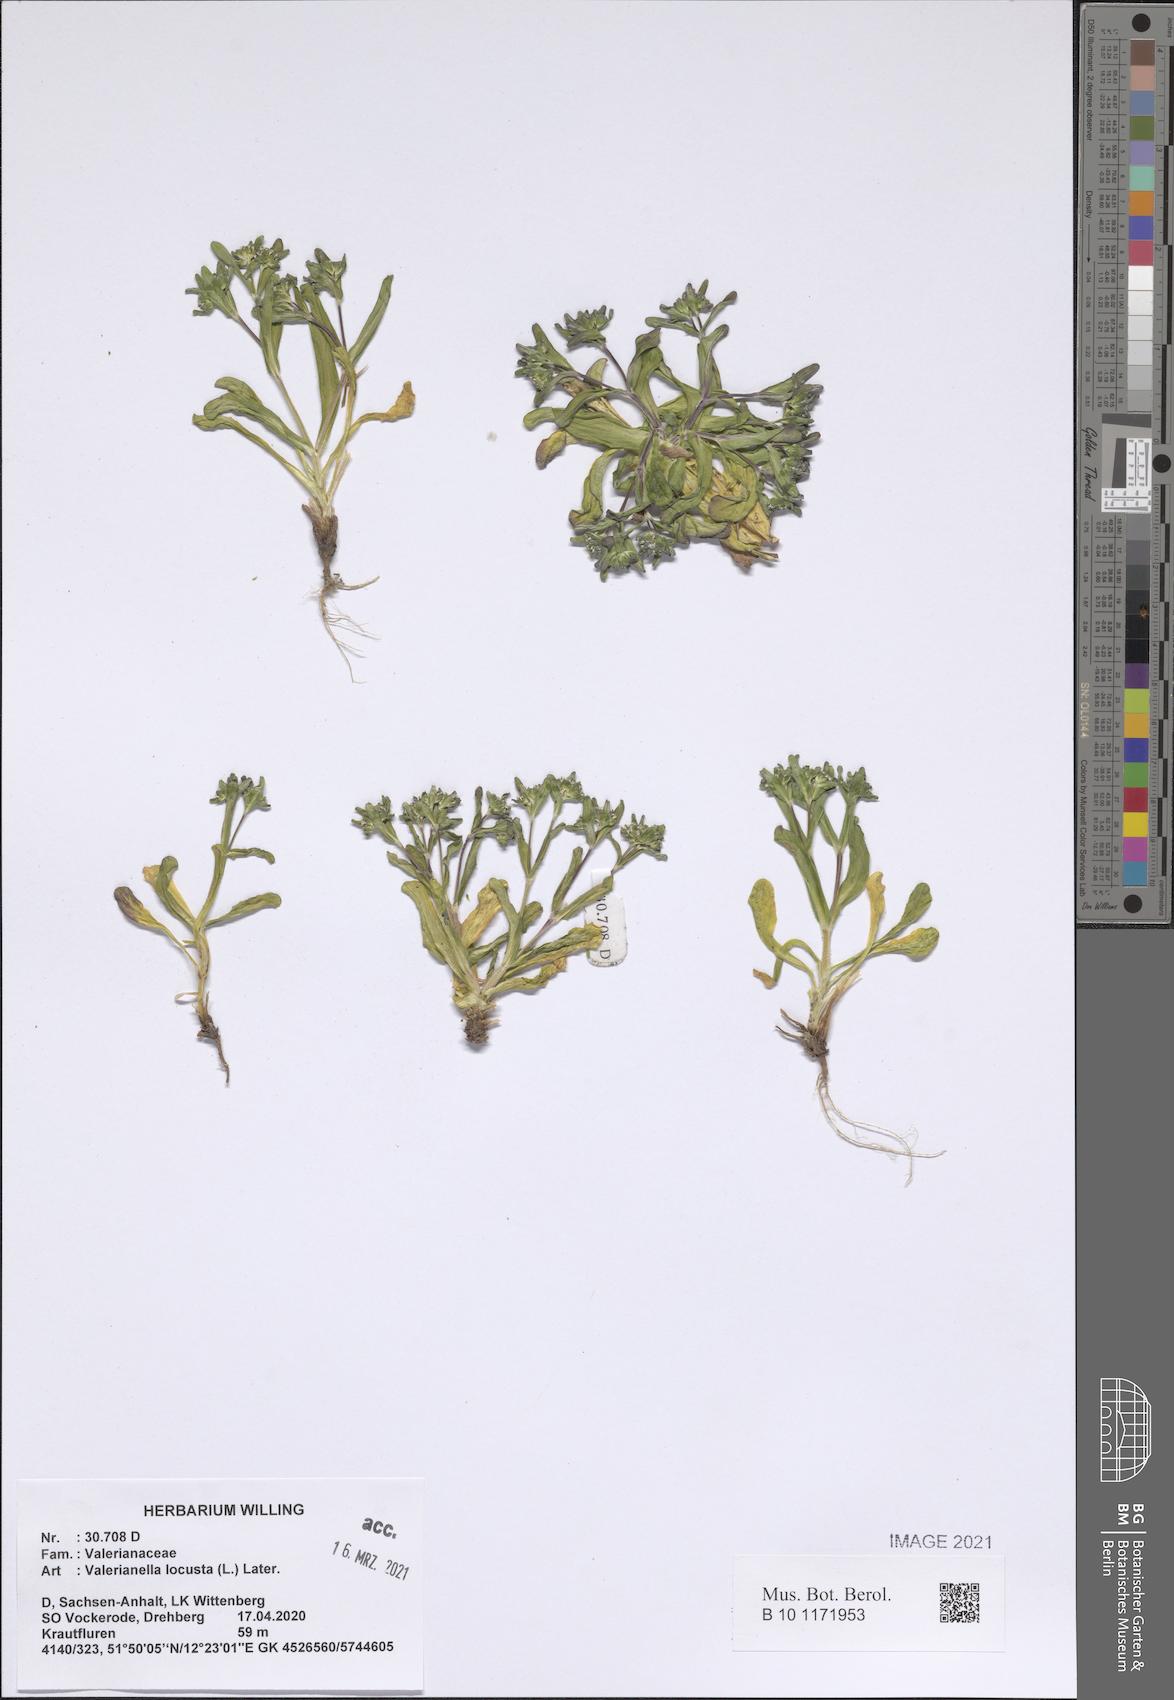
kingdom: Plantae
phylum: Tracheophyta
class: Magnoliopsida
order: Dipsacales
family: Caprifoliaceae
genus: Valerianella
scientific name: Valerianella locusta
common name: Common cornsalad
